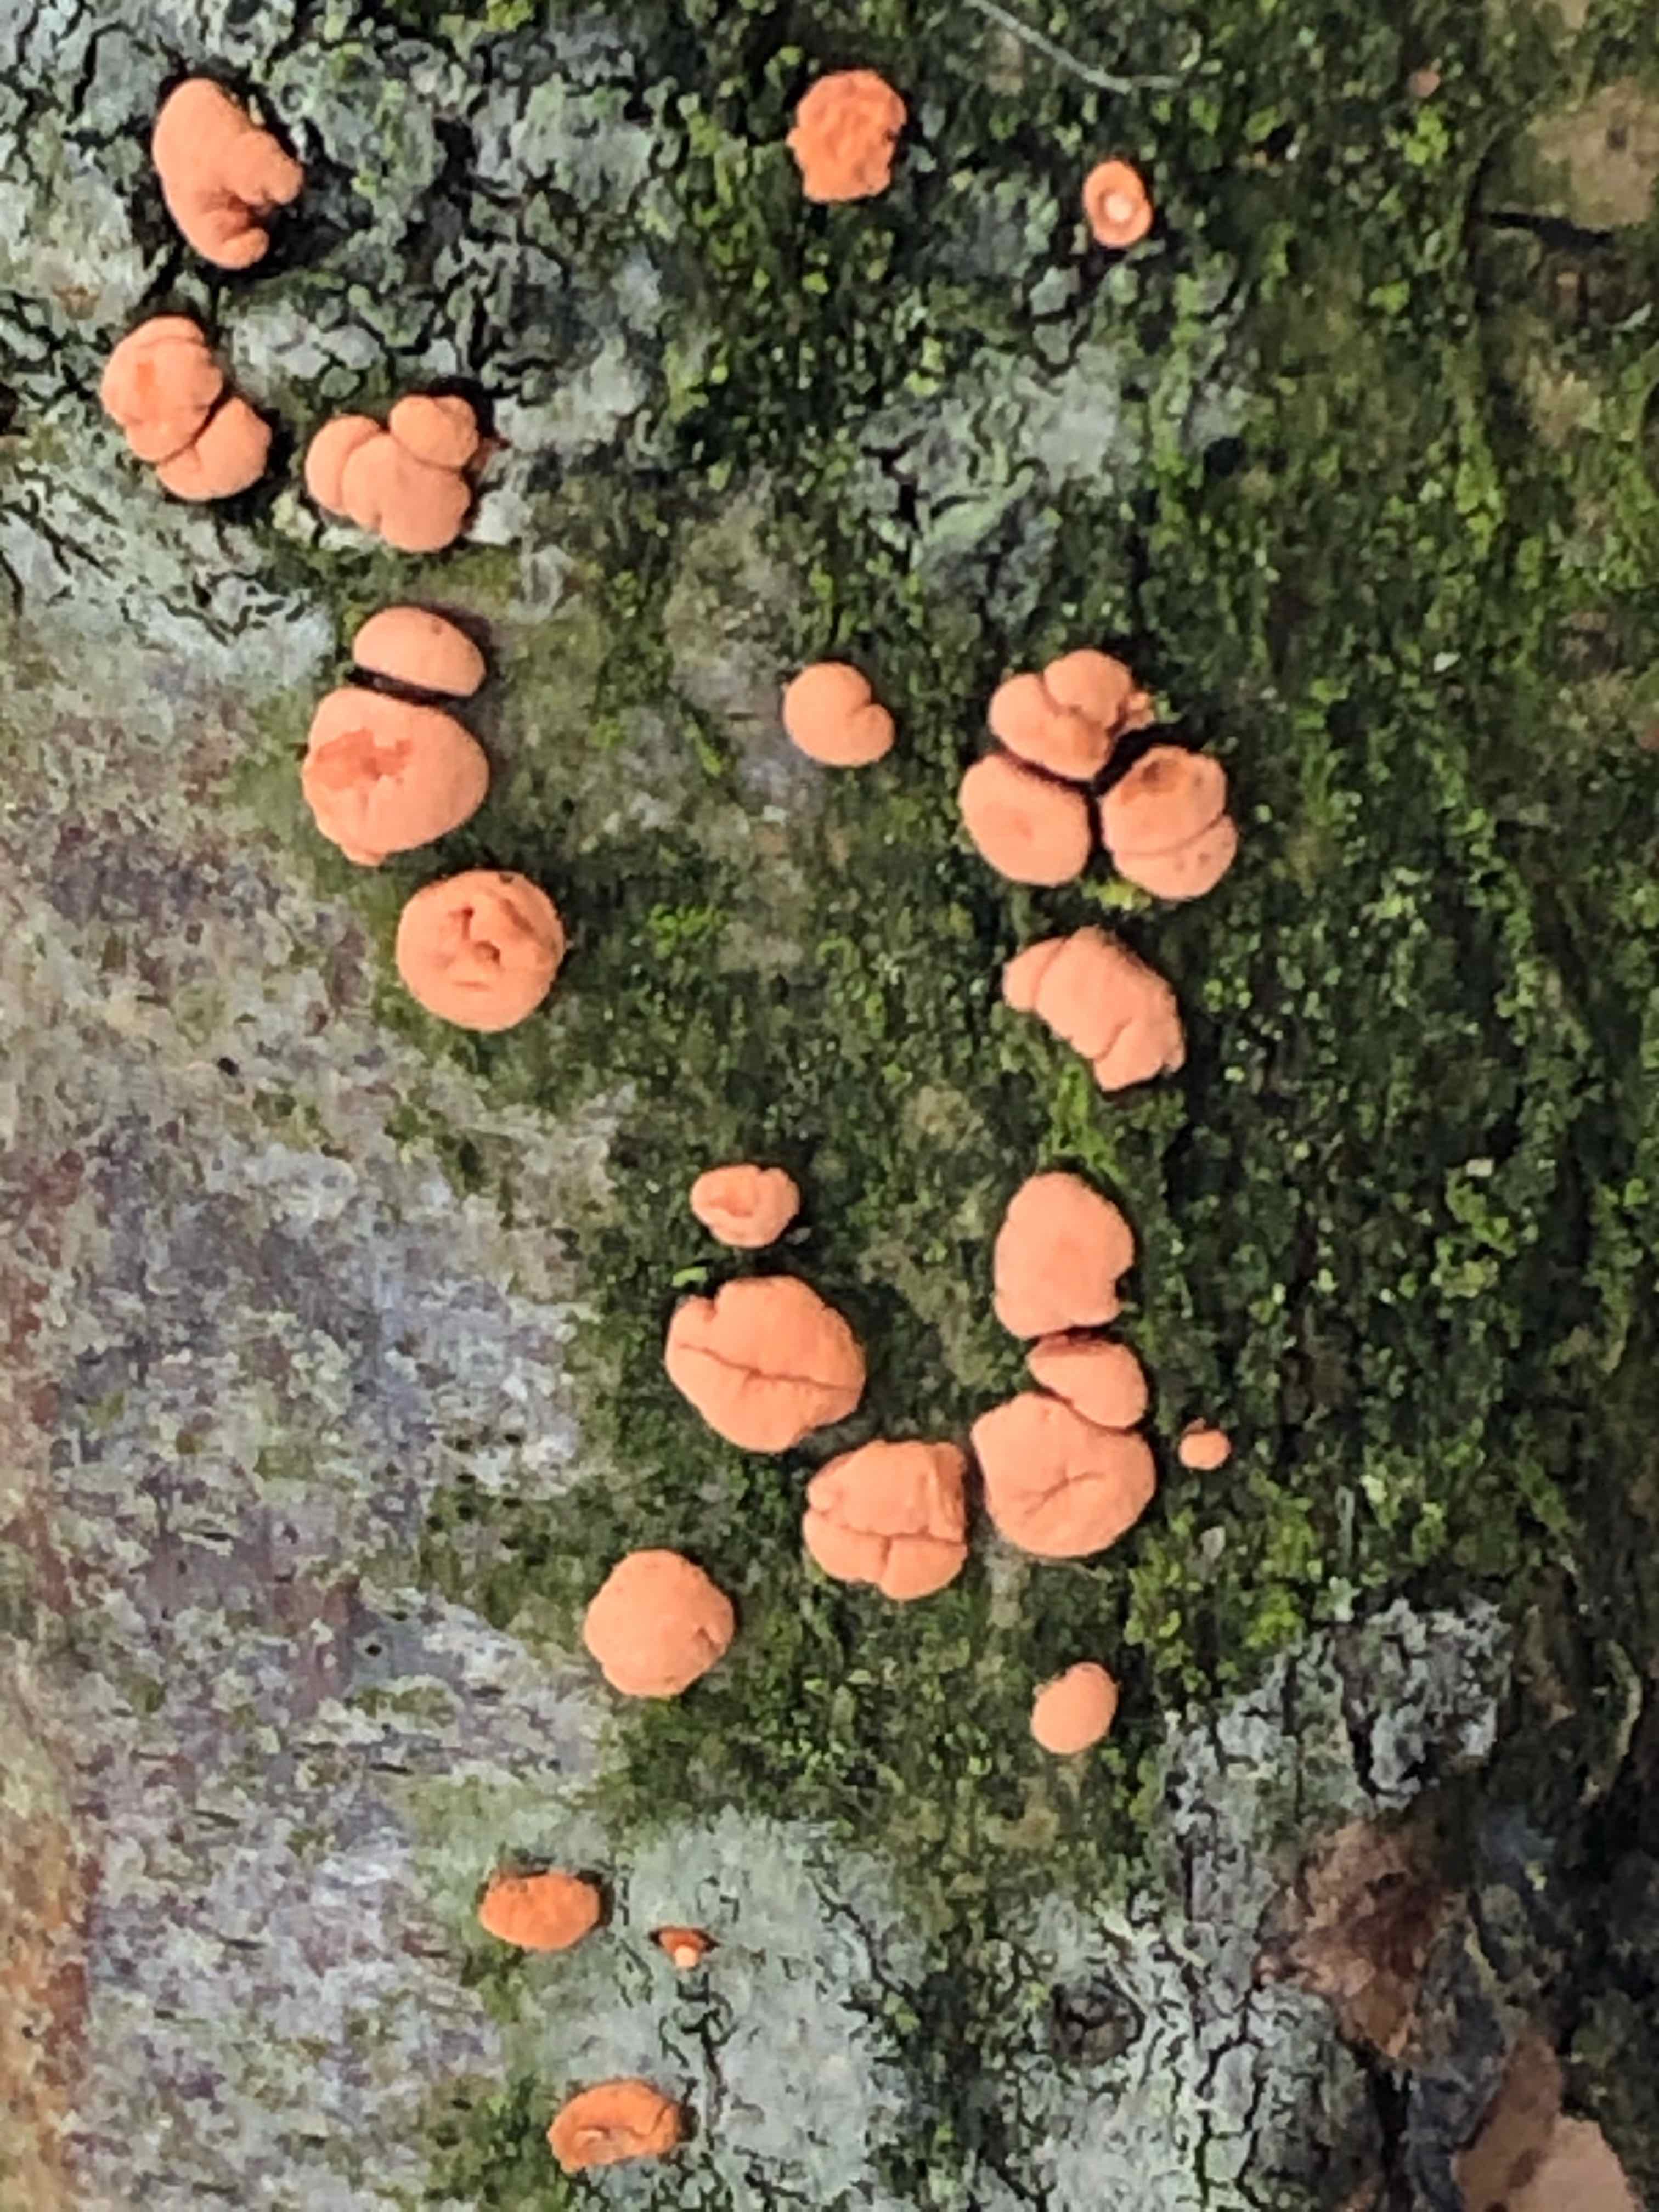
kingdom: Fungi
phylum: Ascomycota
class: Sordariomycetes
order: Hypocreales
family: Nectriaceae
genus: Nectria
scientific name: Nectria cinnabarina
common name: almindelig cinnobersvamp
